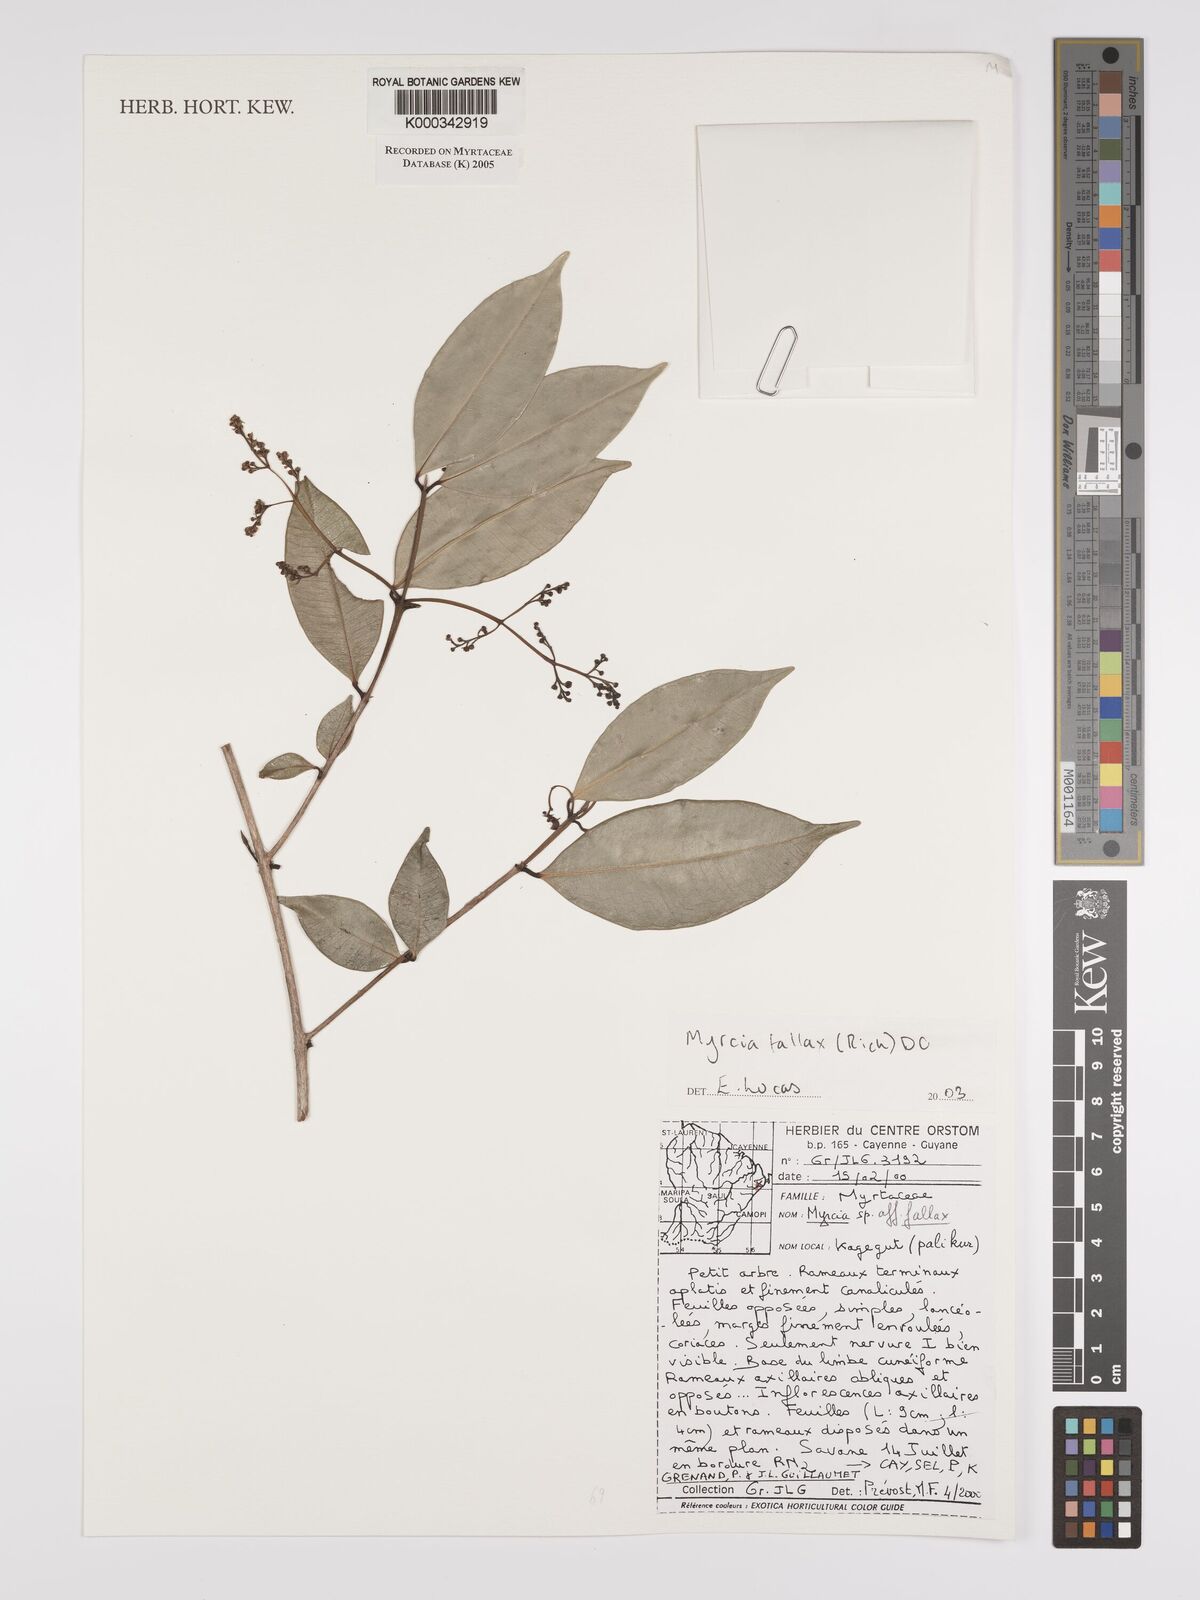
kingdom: Plantae
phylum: Tracheophyta
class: Magnoliopsida
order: Myrtales
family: Myrtaceae
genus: Myrcia
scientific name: Myrcia splendens
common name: Surinam cherry
